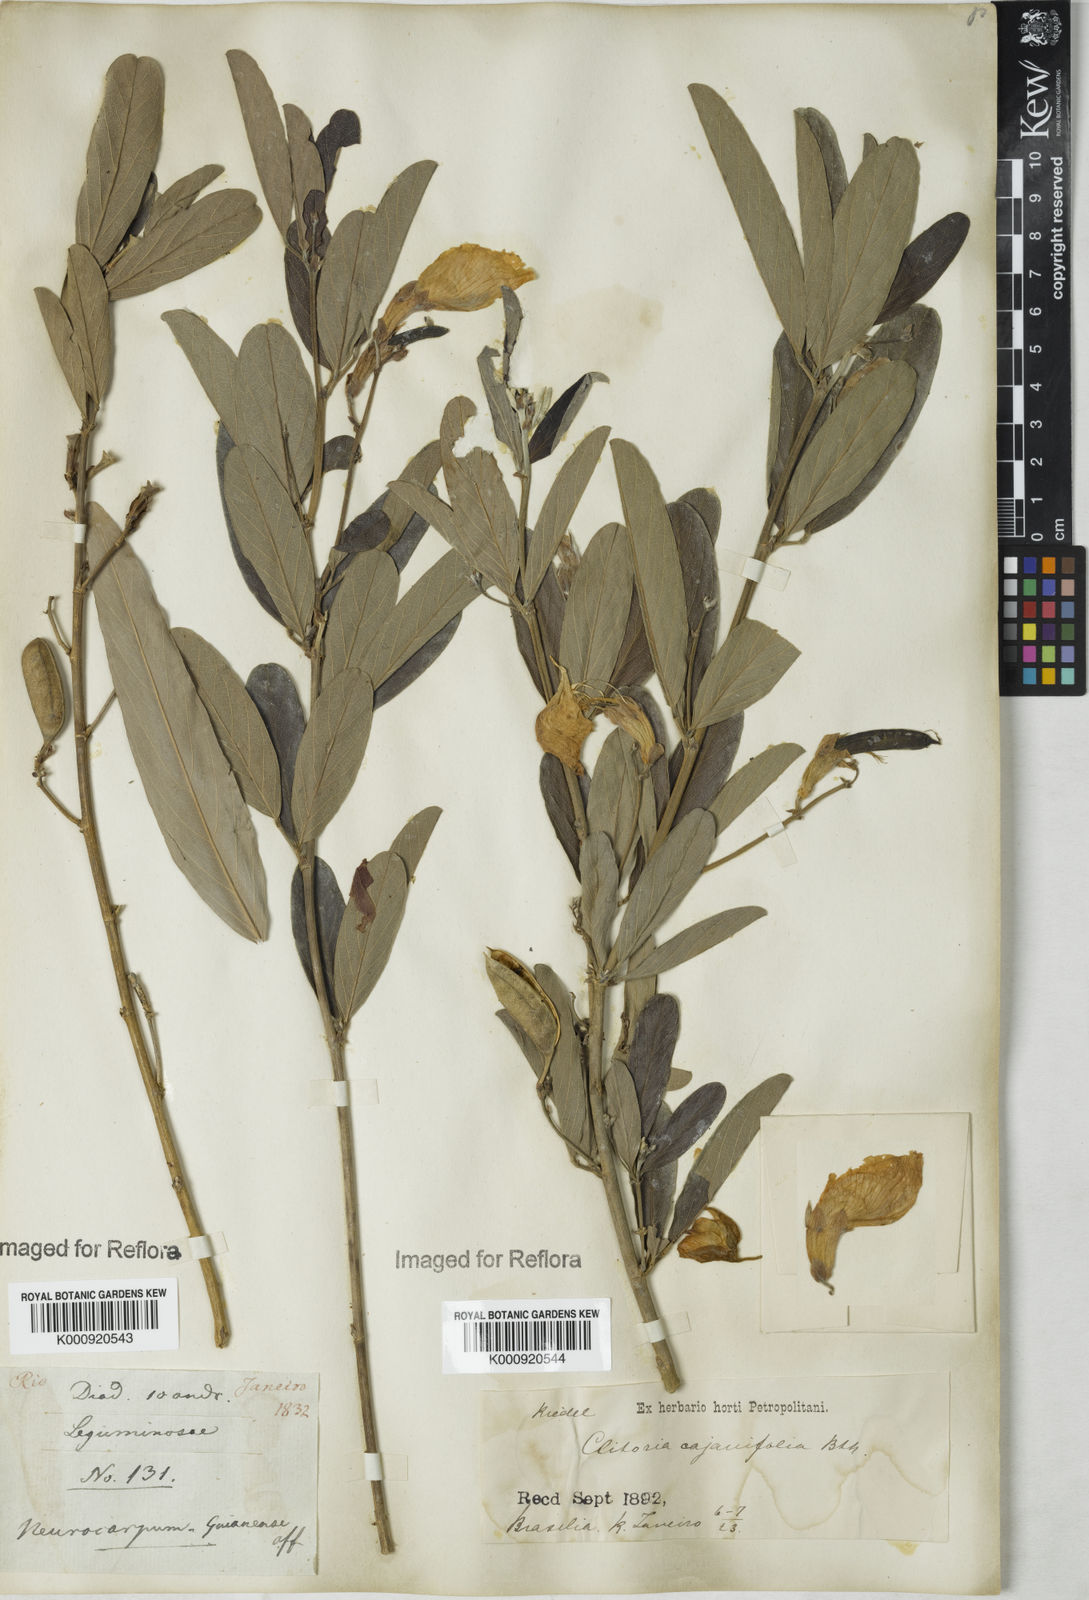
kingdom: Plantae
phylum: Tracheophyta
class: Magnoliopsida
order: Fabales
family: Fabaceae
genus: Clitoria
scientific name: Clitoria laurifolia
